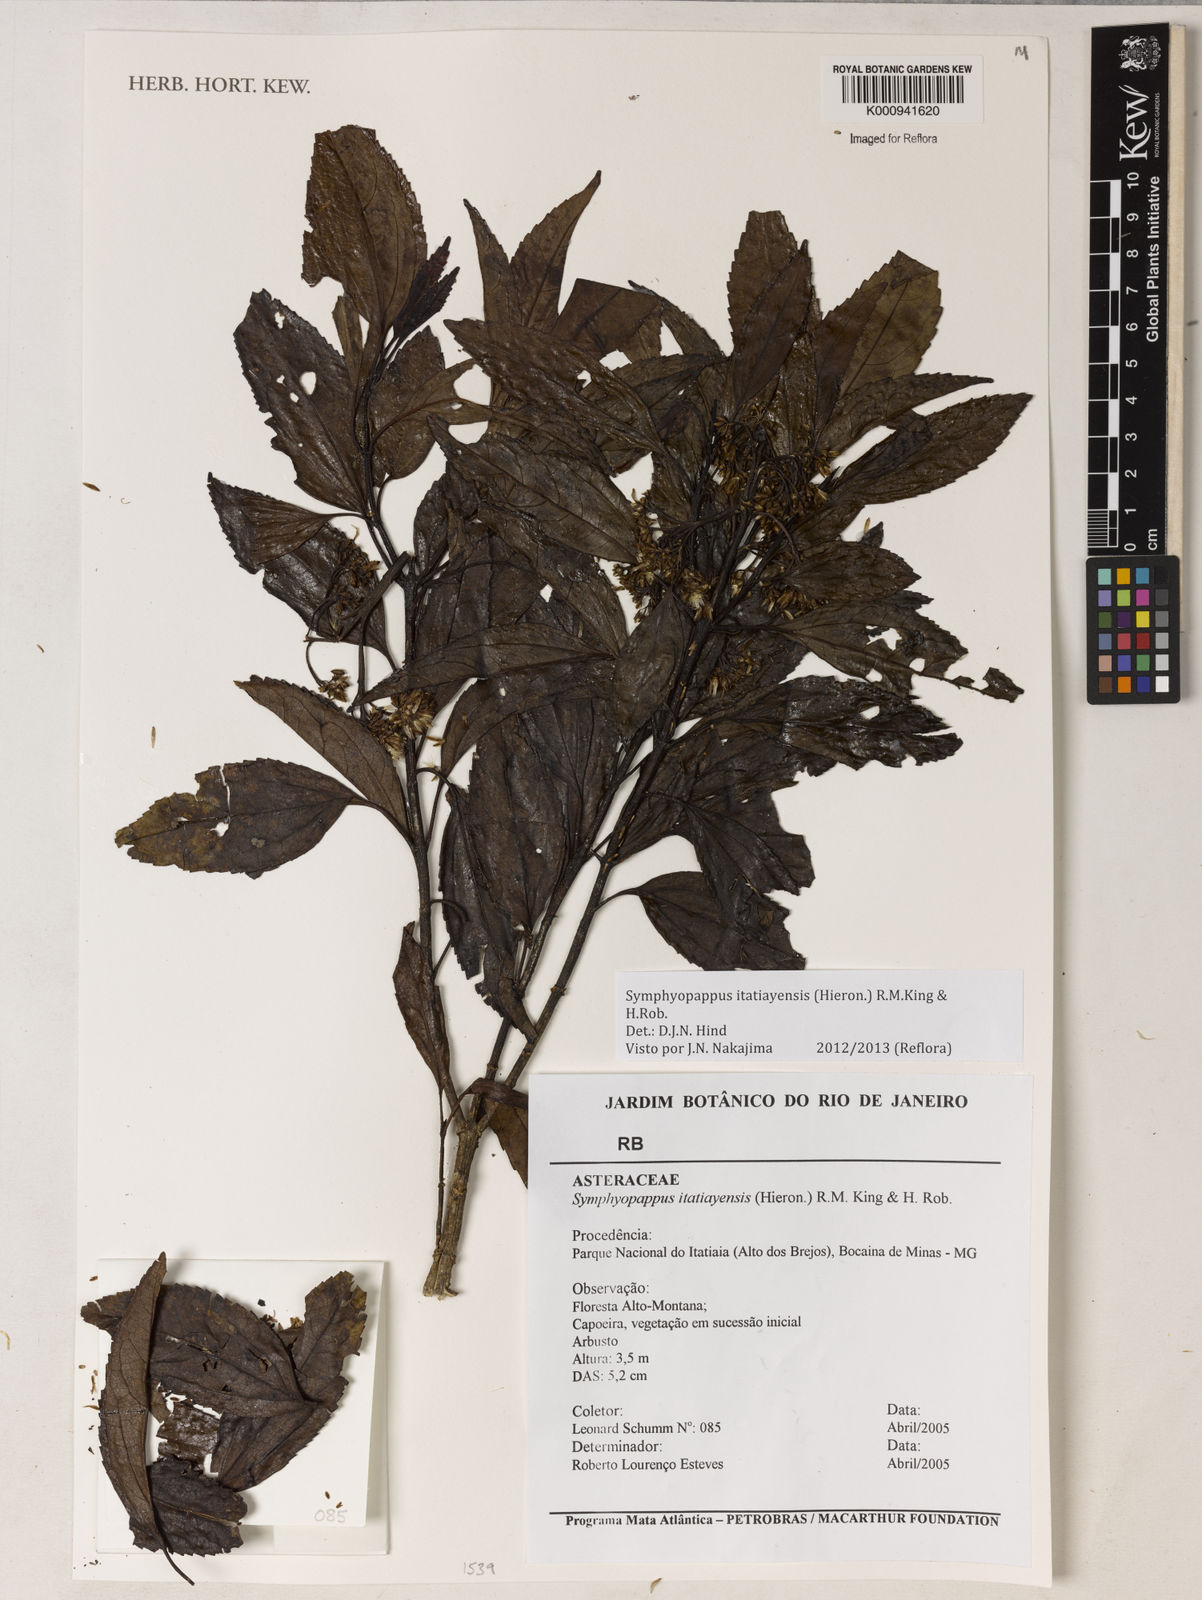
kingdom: Plantae
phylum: Tracheophyta
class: Magnoliopsida
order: Asterales
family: Asteraceae
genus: Symphyopappus
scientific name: Symphyopappus itatiayensis
